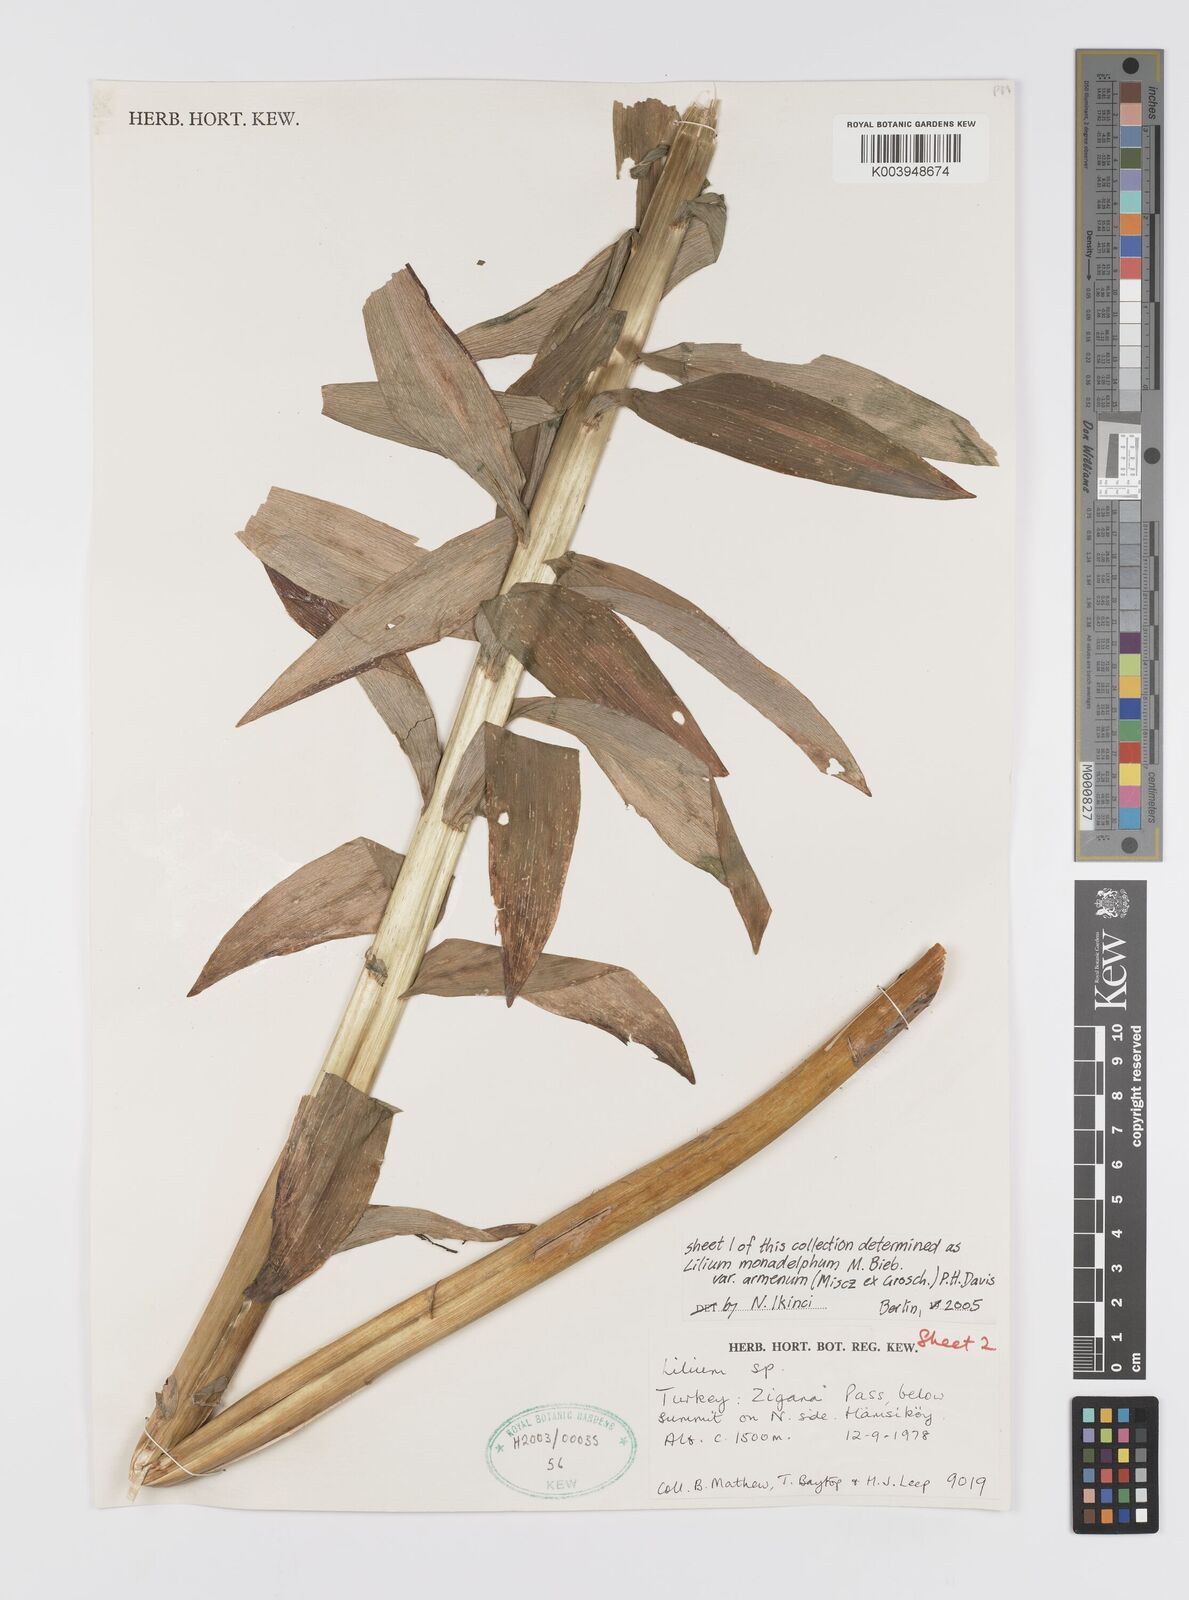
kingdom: Plantae
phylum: Tracheophyta
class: Liliopsida
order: Liliales
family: Liliaceae
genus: Lilium
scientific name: Lilium armenum
